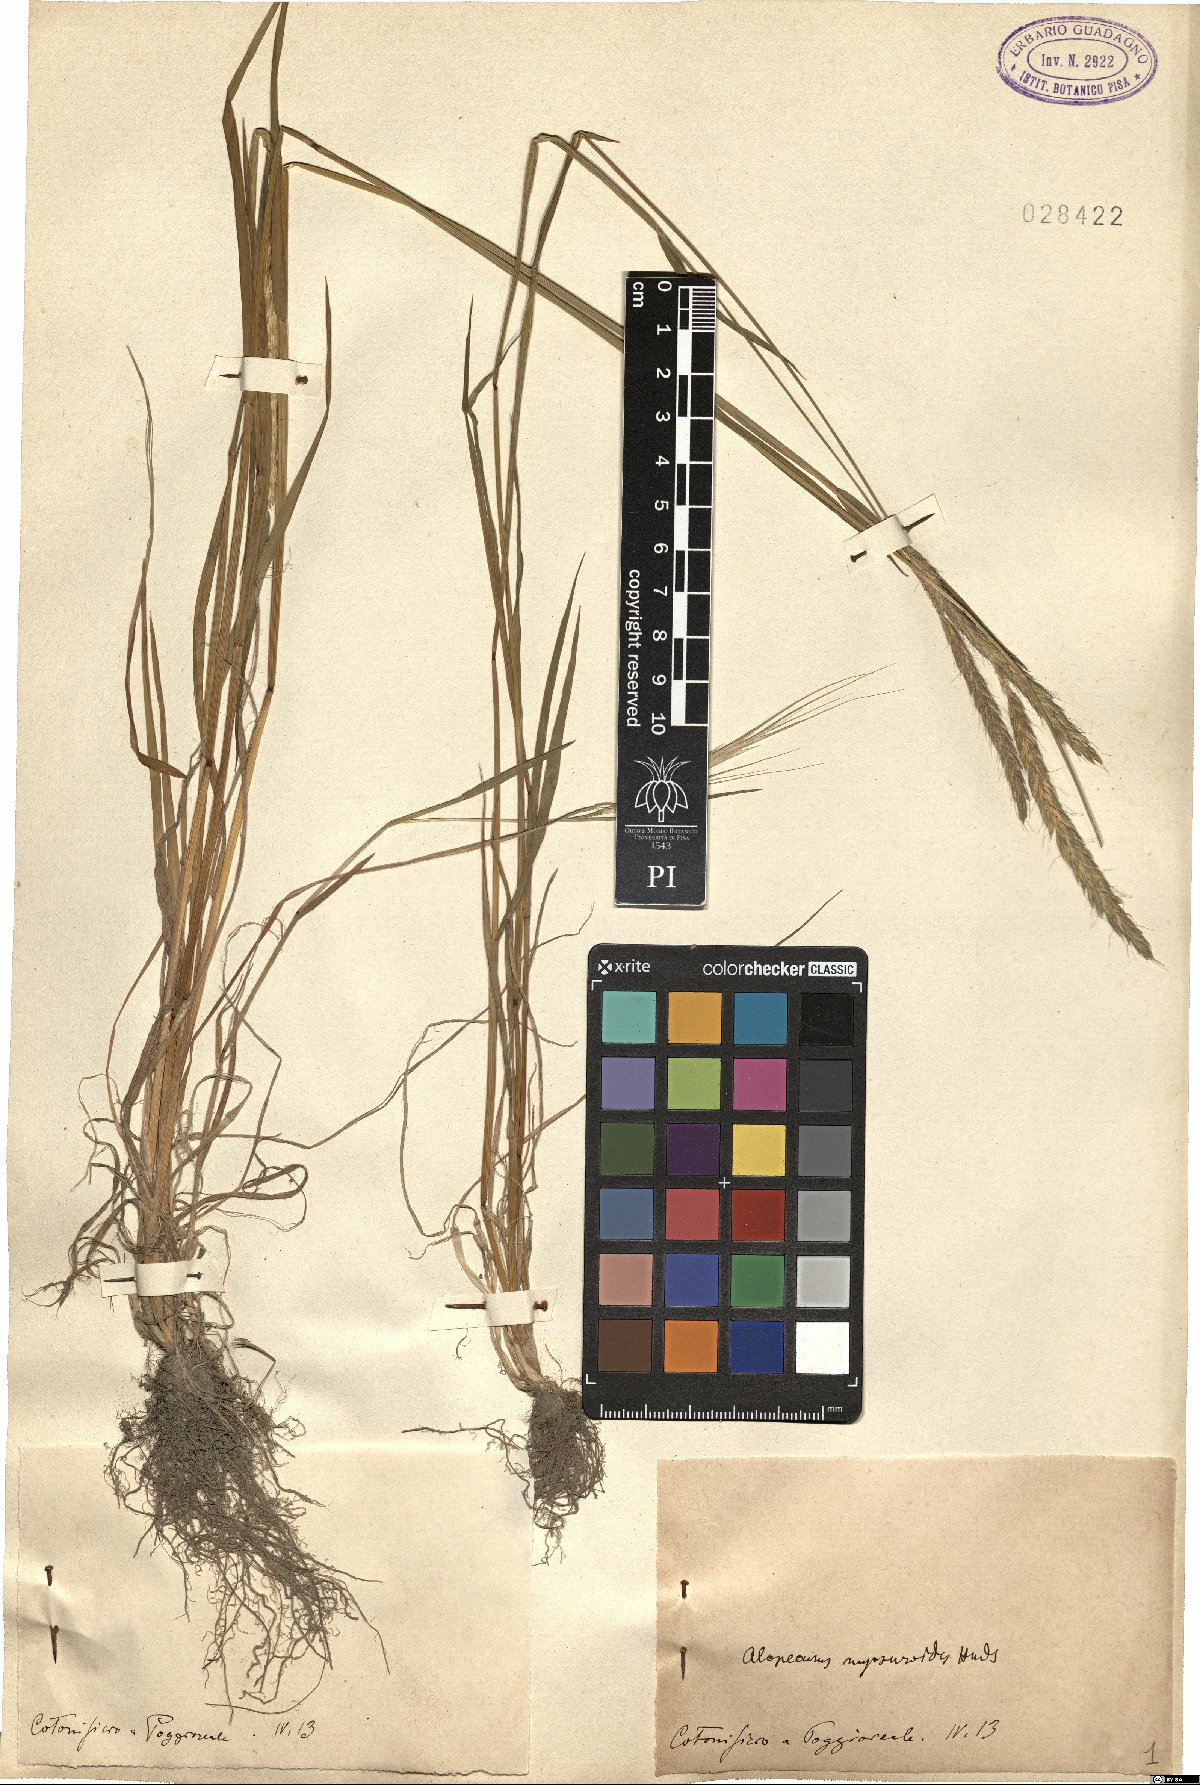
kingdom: Plantae
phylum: Tracheophyta
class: Liliopsida
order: Poales
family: Poaceae
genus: Alopecurus
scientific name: Alopecurus myosuroides
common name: Black-grass
